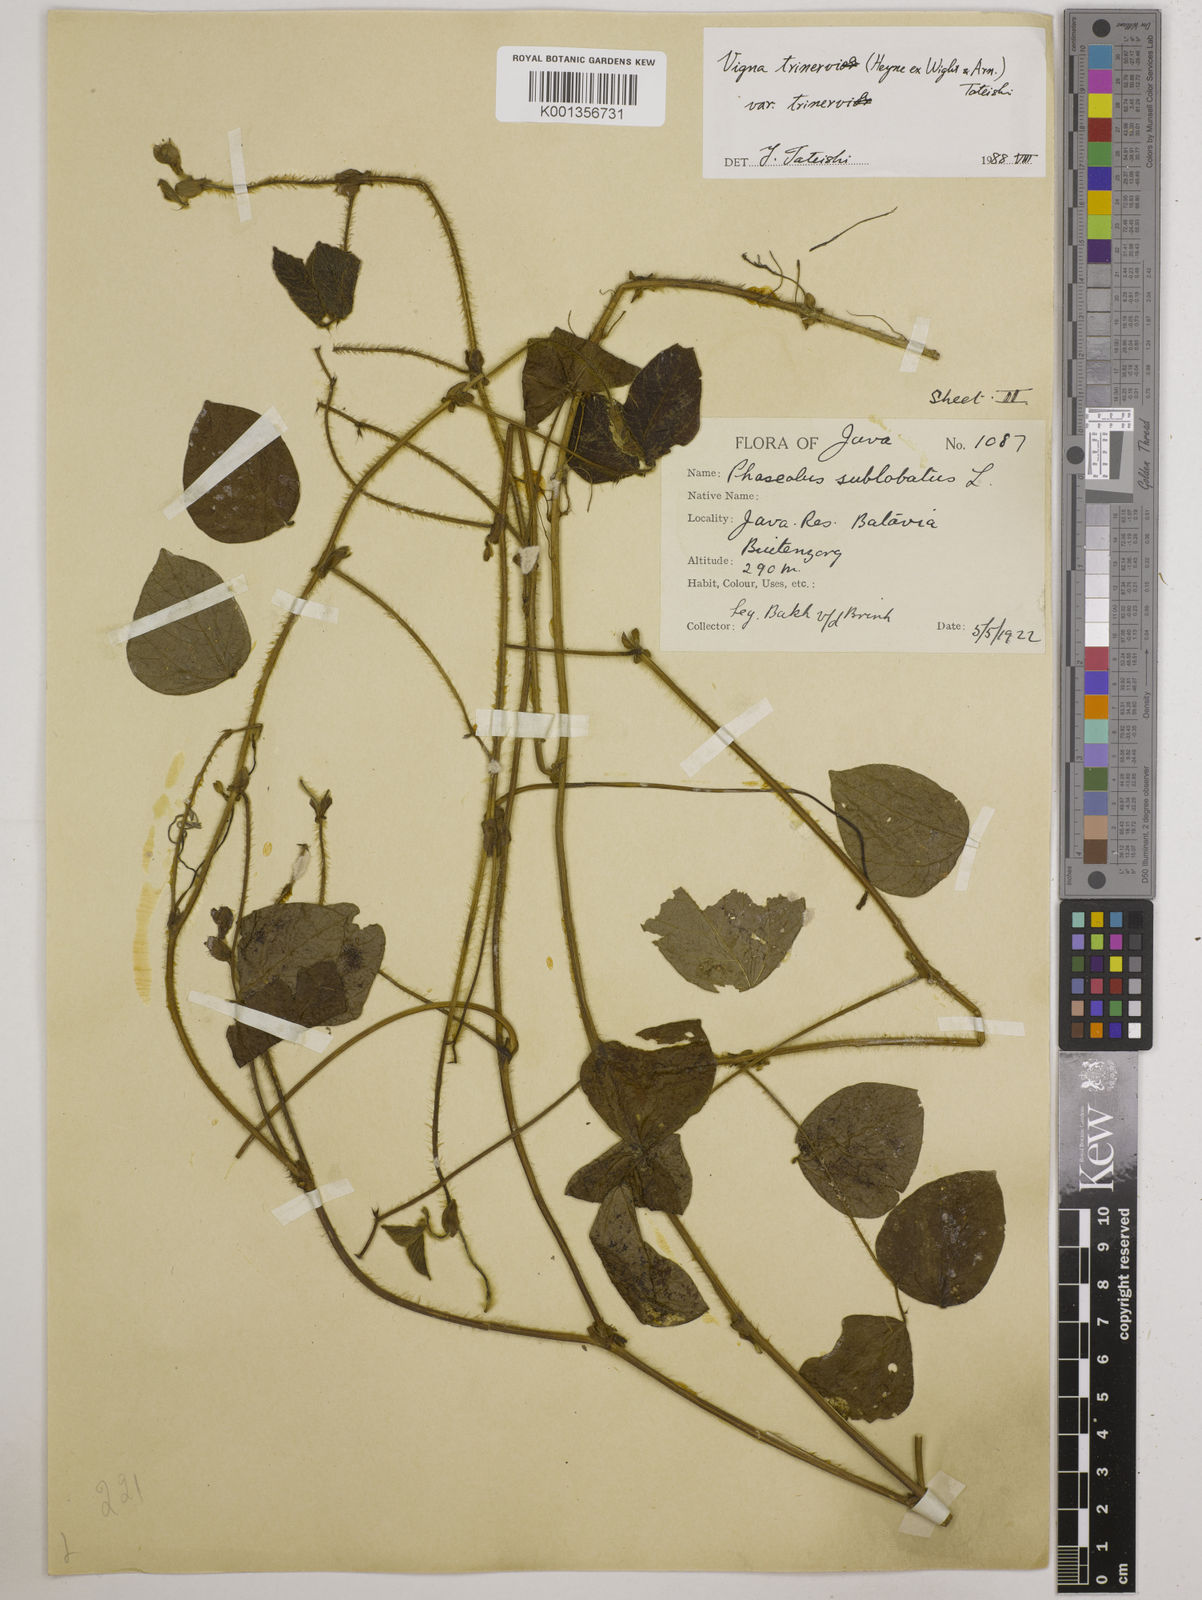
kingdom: Plantae
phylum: Tracheophyta
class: Magnoliopsida
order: Fabales
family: Fabaceae
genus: Vigna
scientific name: Vigna
